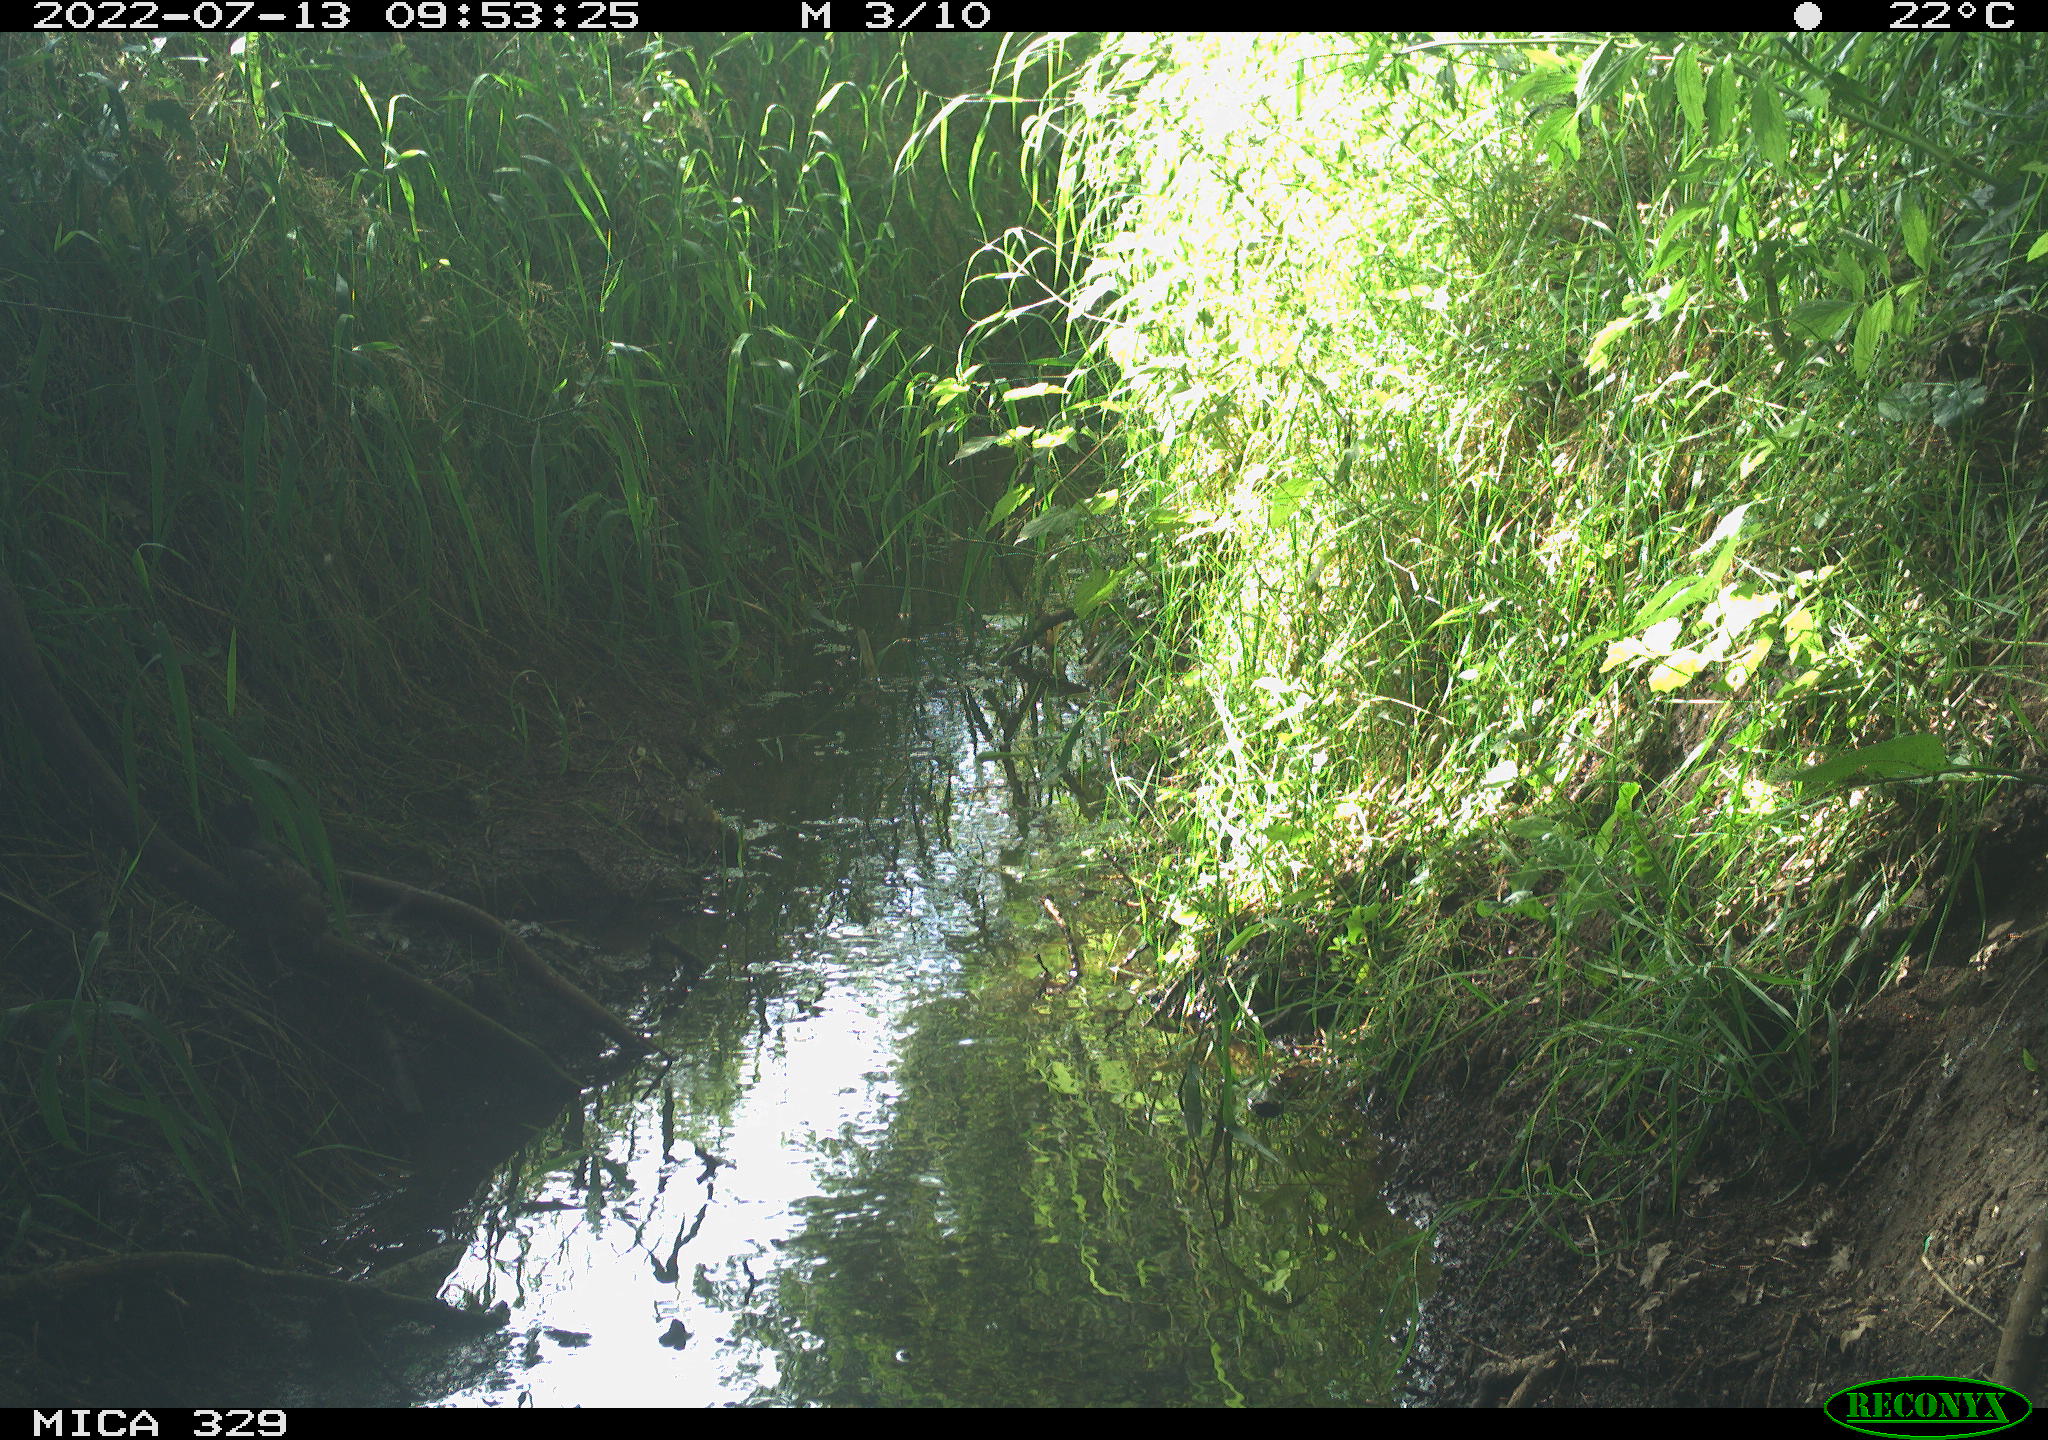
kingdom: Animalia
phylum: Chordata
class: Aves
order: Passeriformes
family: Turdidae
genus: Turdus
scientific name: Turdus merula
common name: Common blackbird
